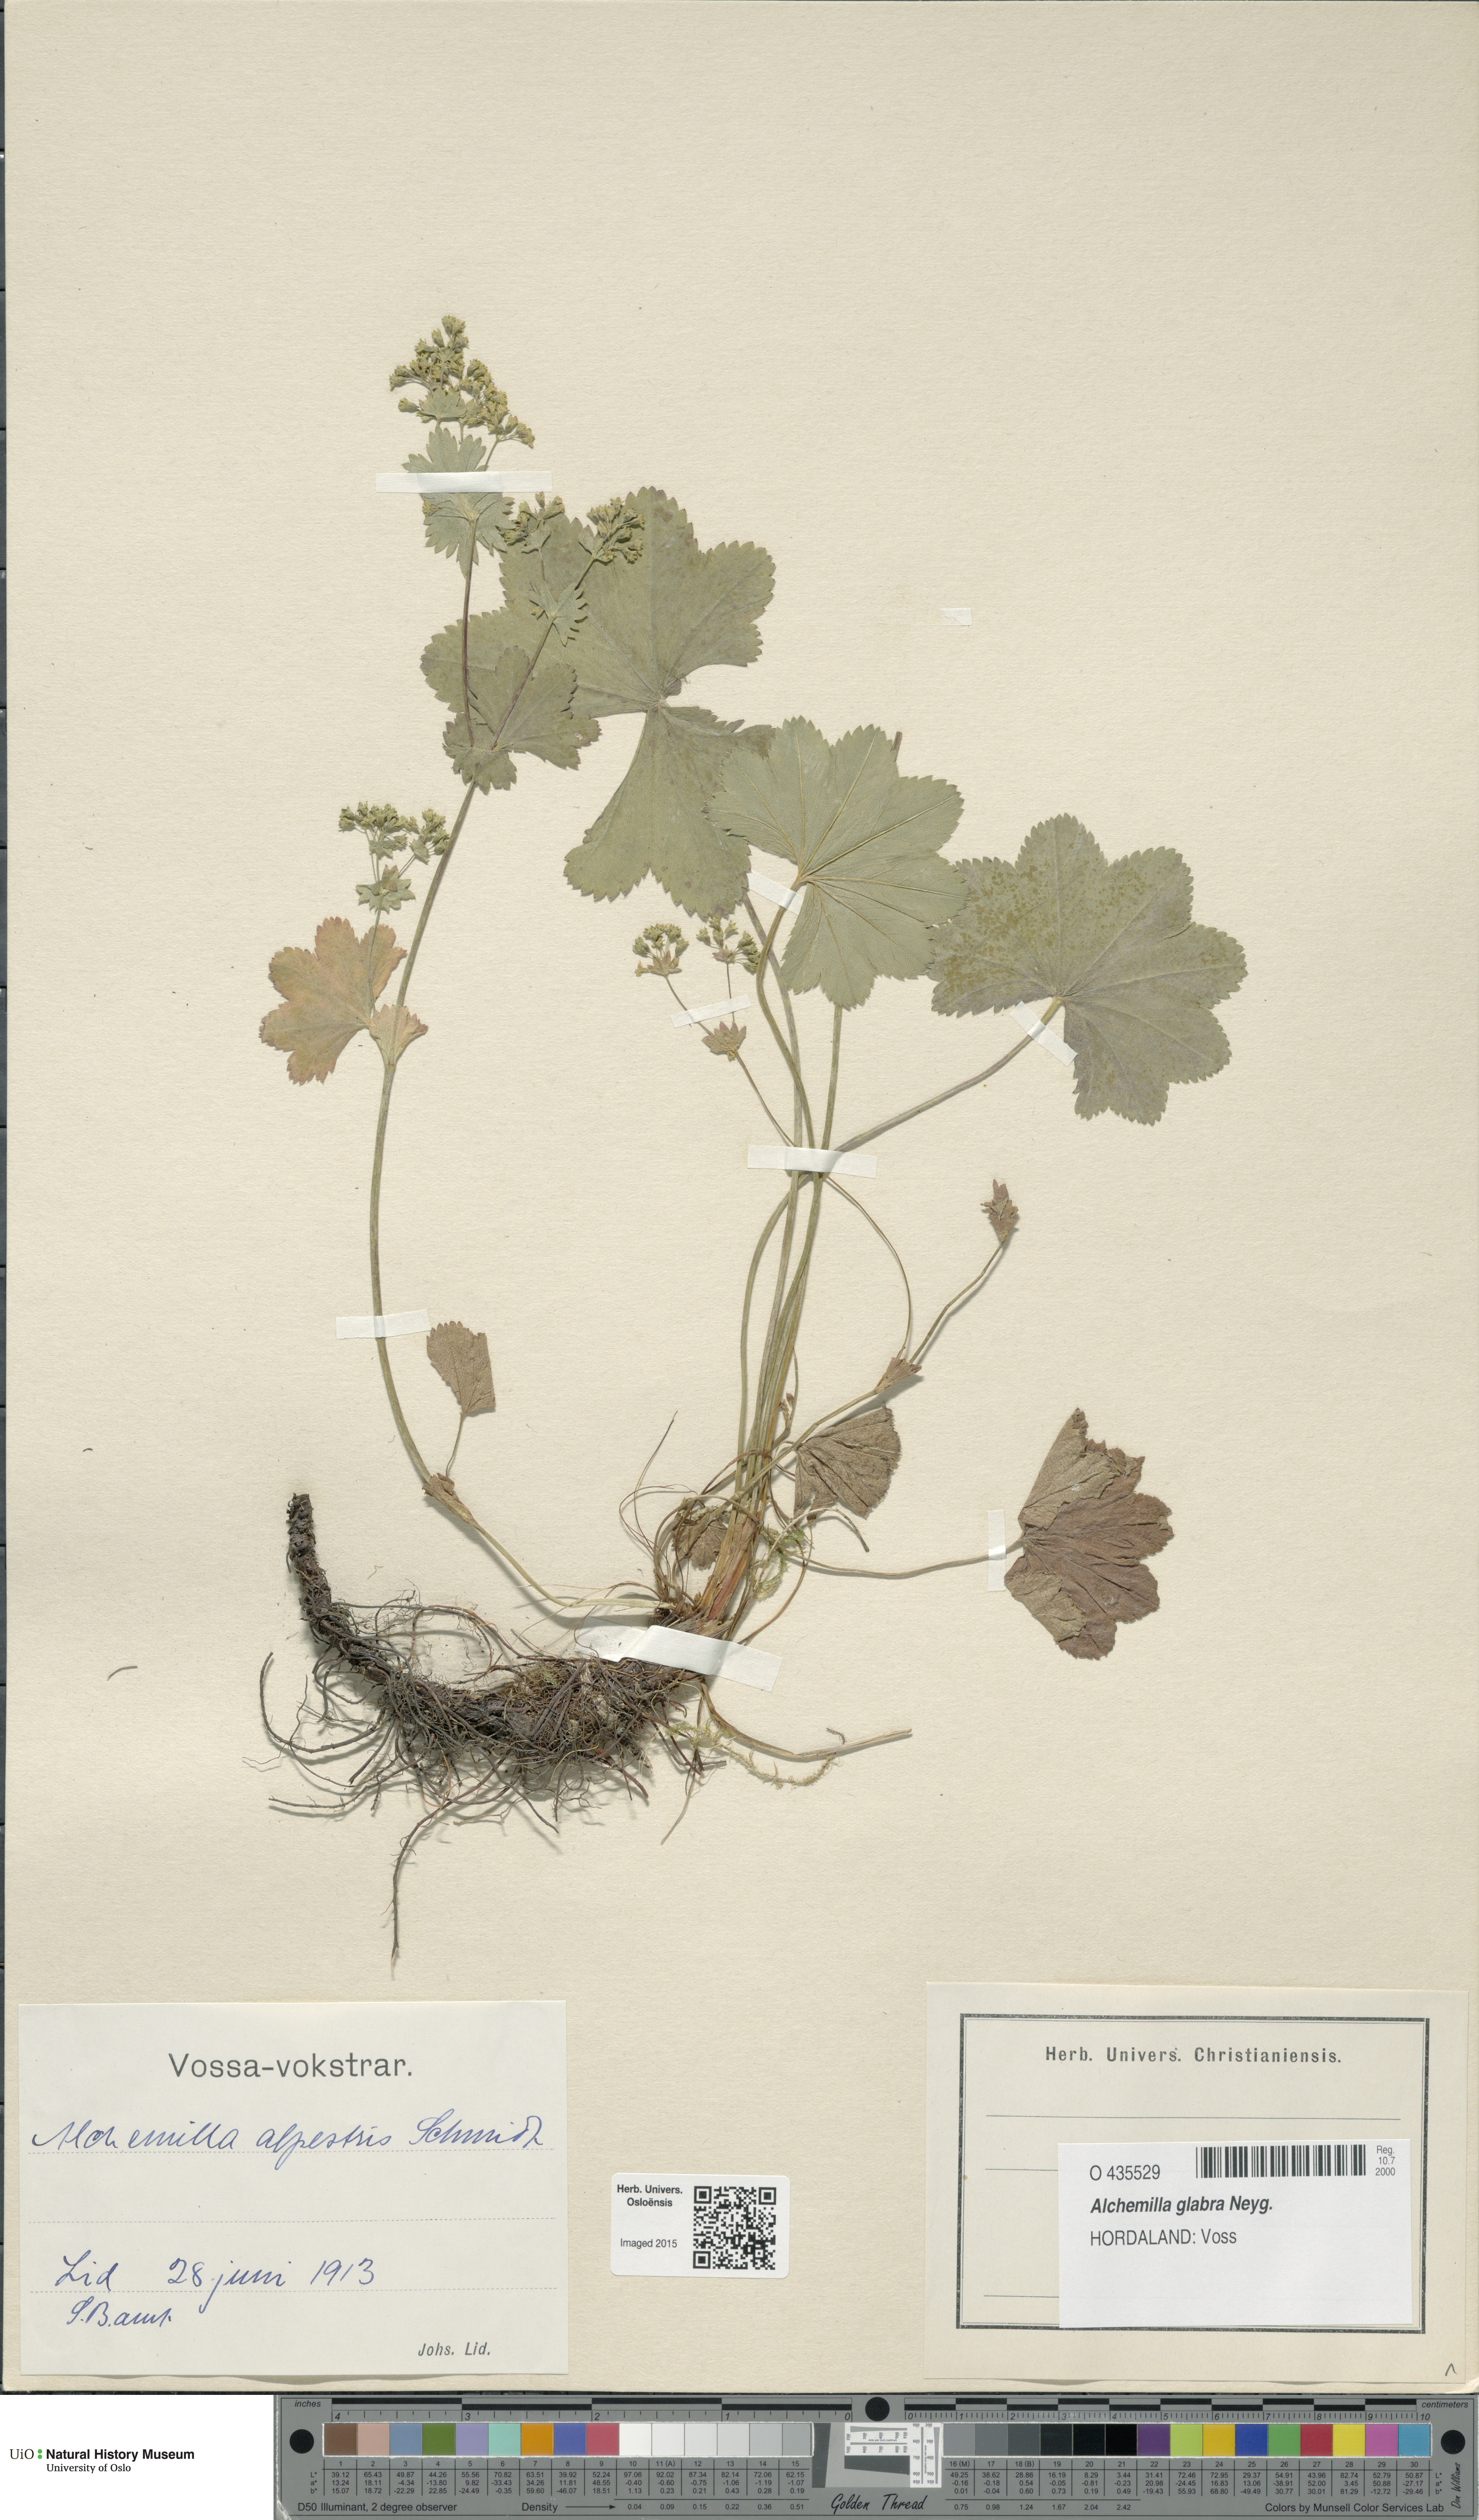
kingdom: Plantae
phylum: Tracheophyta
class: Magnoliopsida
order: Rosales
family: Rosaceae
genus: Alchemilla
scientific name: Alchemilla glabra
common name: Smooth lady's-mantle
